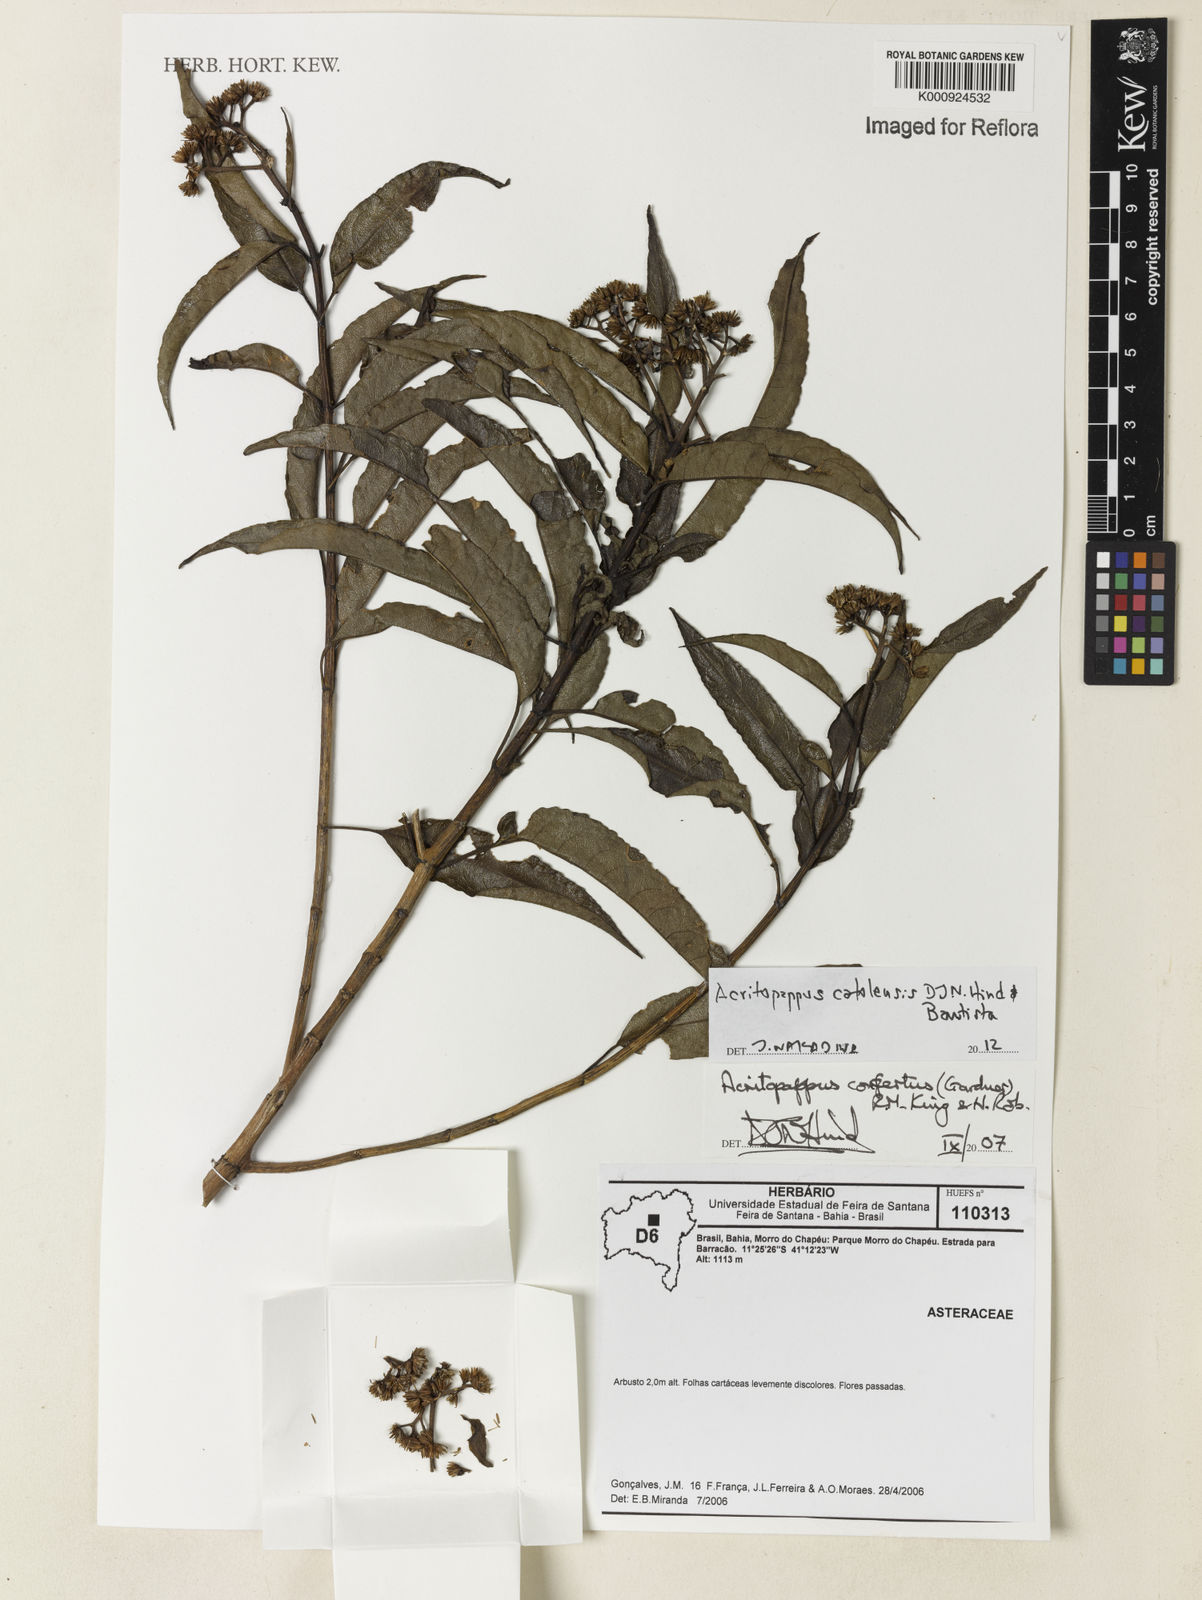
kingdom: Plantae
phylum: Tracheophyta
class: Magnoliopsida
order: Asterales
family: Asteraceae
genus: Acritopappus
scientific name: Acritopappus catolesensis
